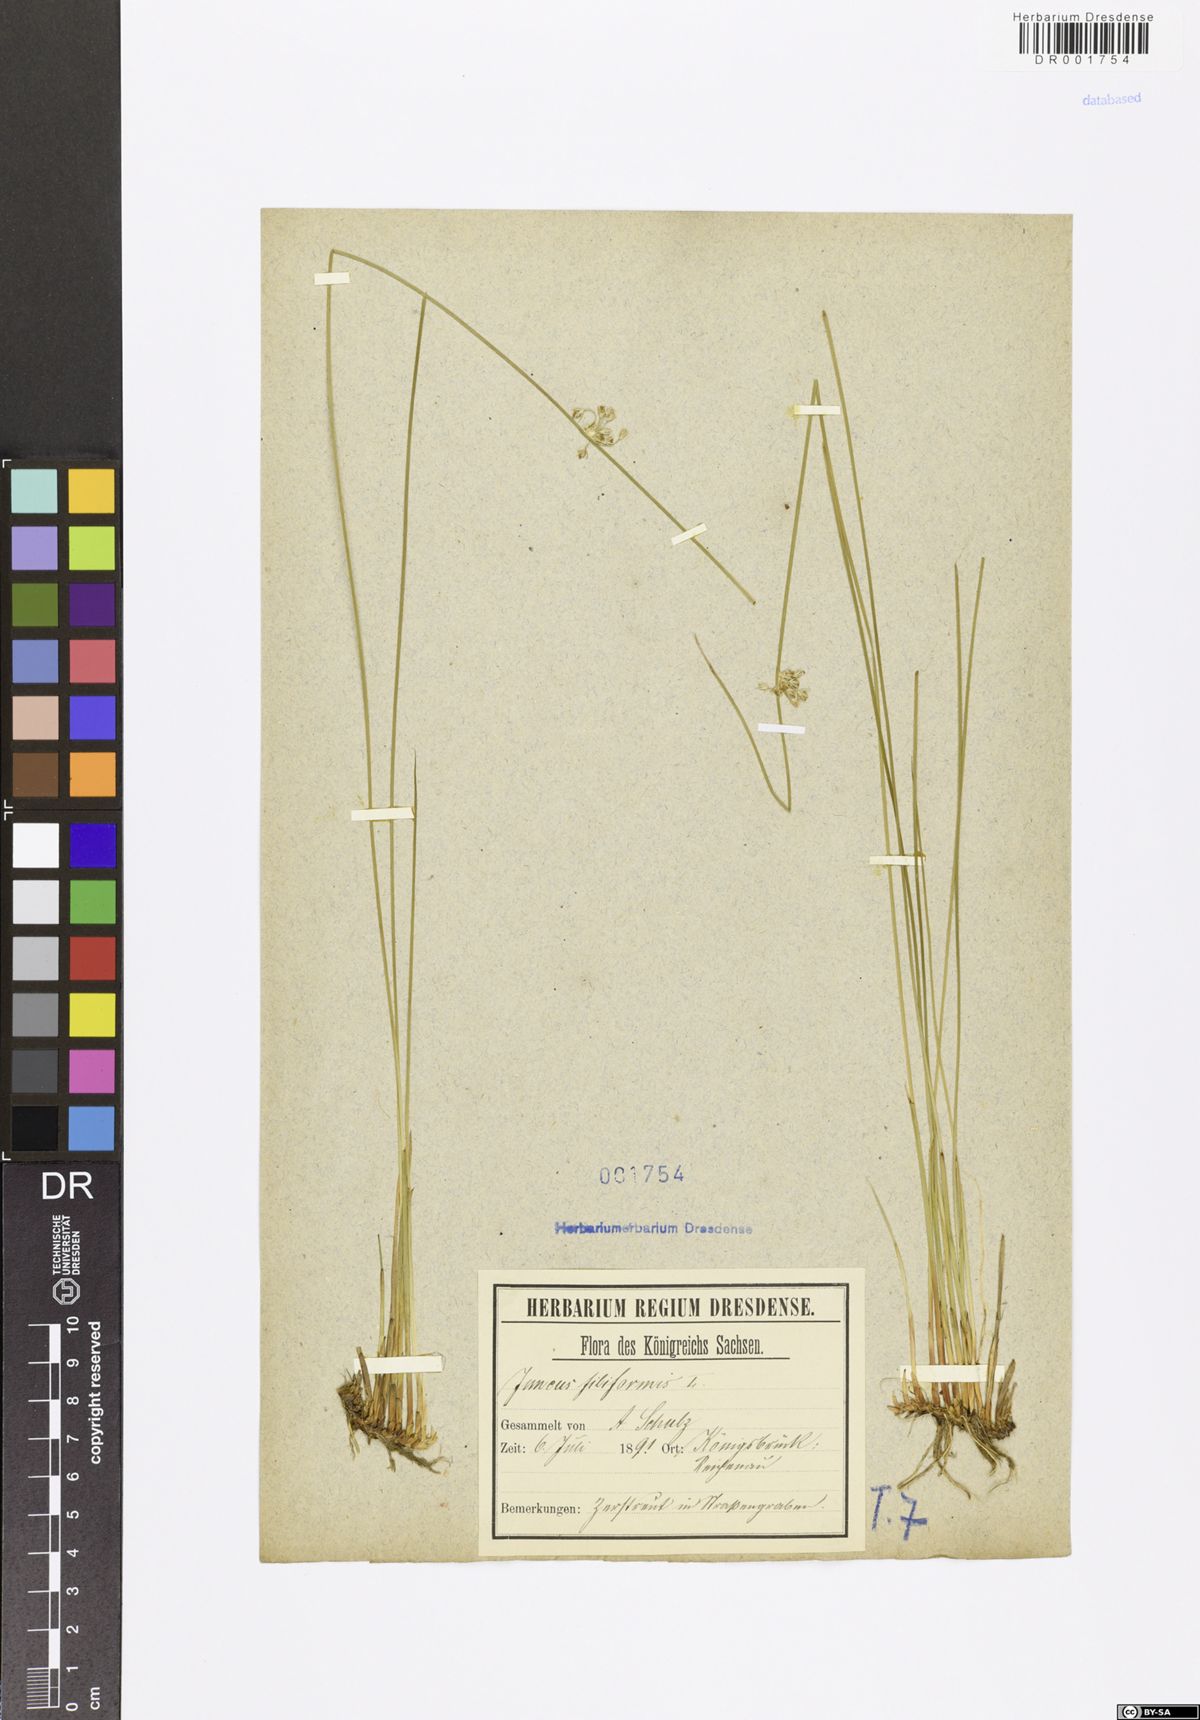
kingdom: Plantae
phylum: Tracheophyta
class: Liliopsida
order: Poales
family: Juncaceae
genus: Juncus
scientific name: Juncus inflexus
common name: Hard rush
